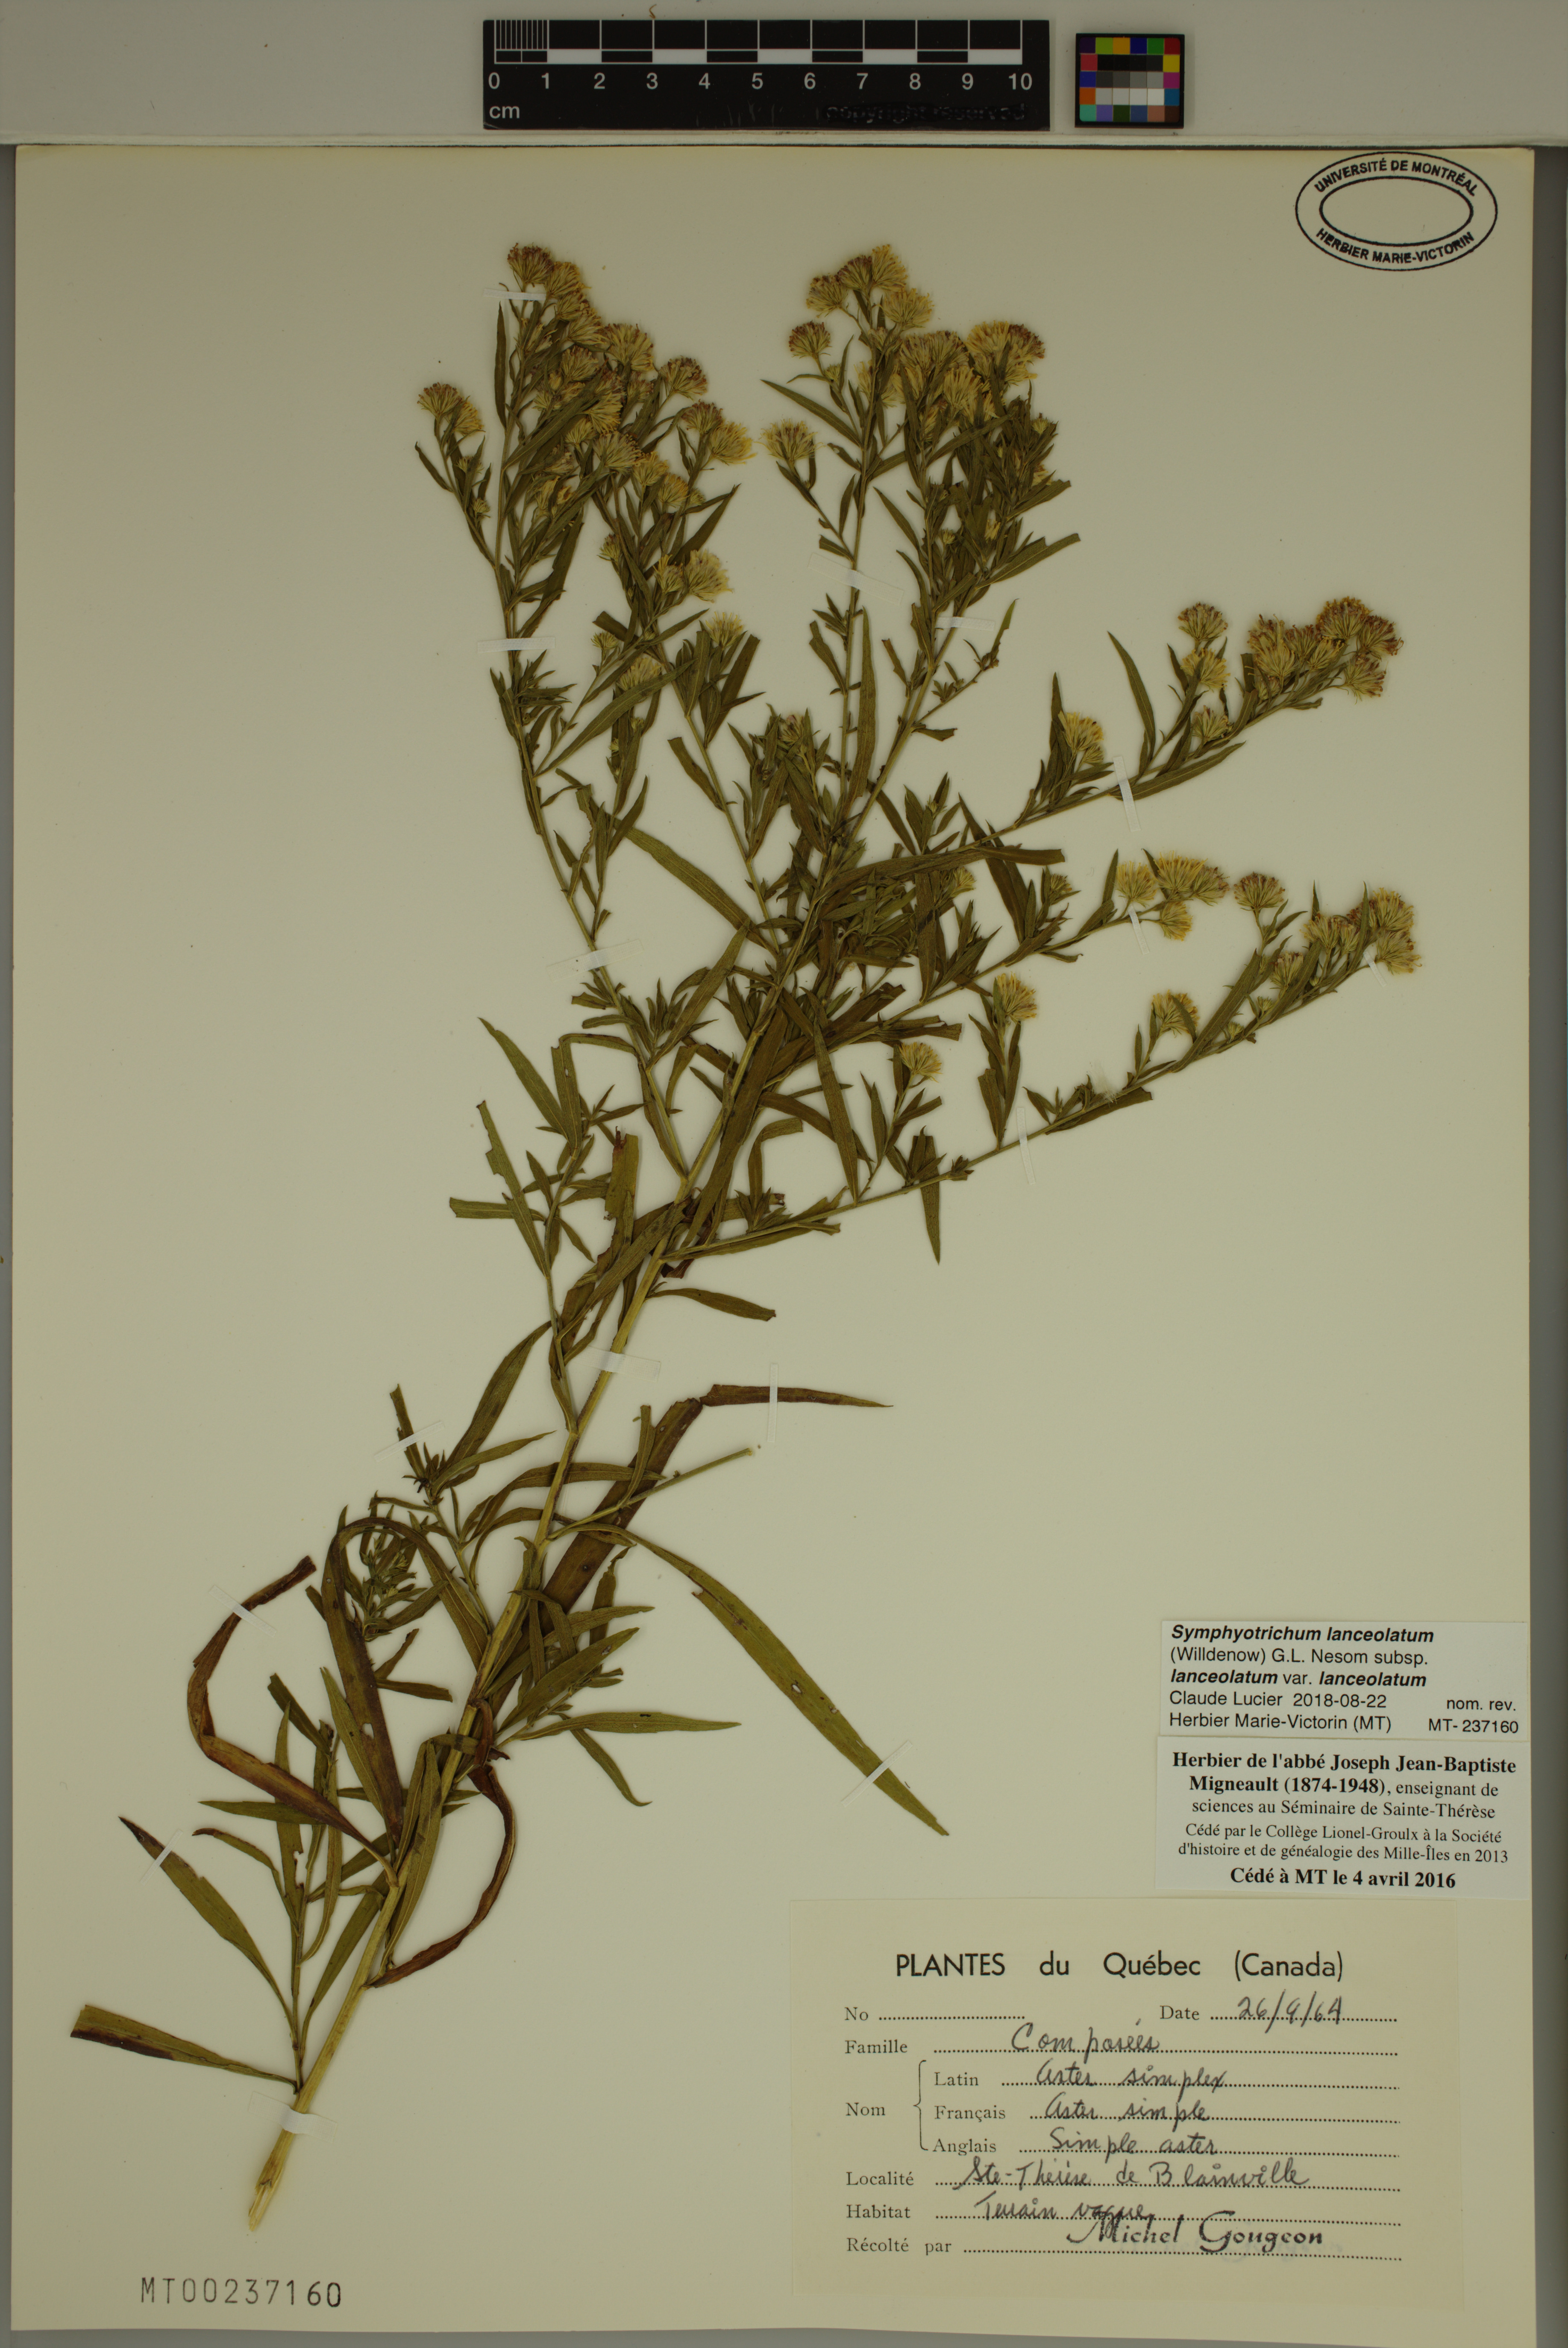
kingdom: Plantae
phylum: Tracheophyta
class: Magnoliopsida
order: Asterales
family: Asteraceae
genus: Symphyotrichum
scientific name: Symphyotrichum lanceolatum
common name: Panicled aster
